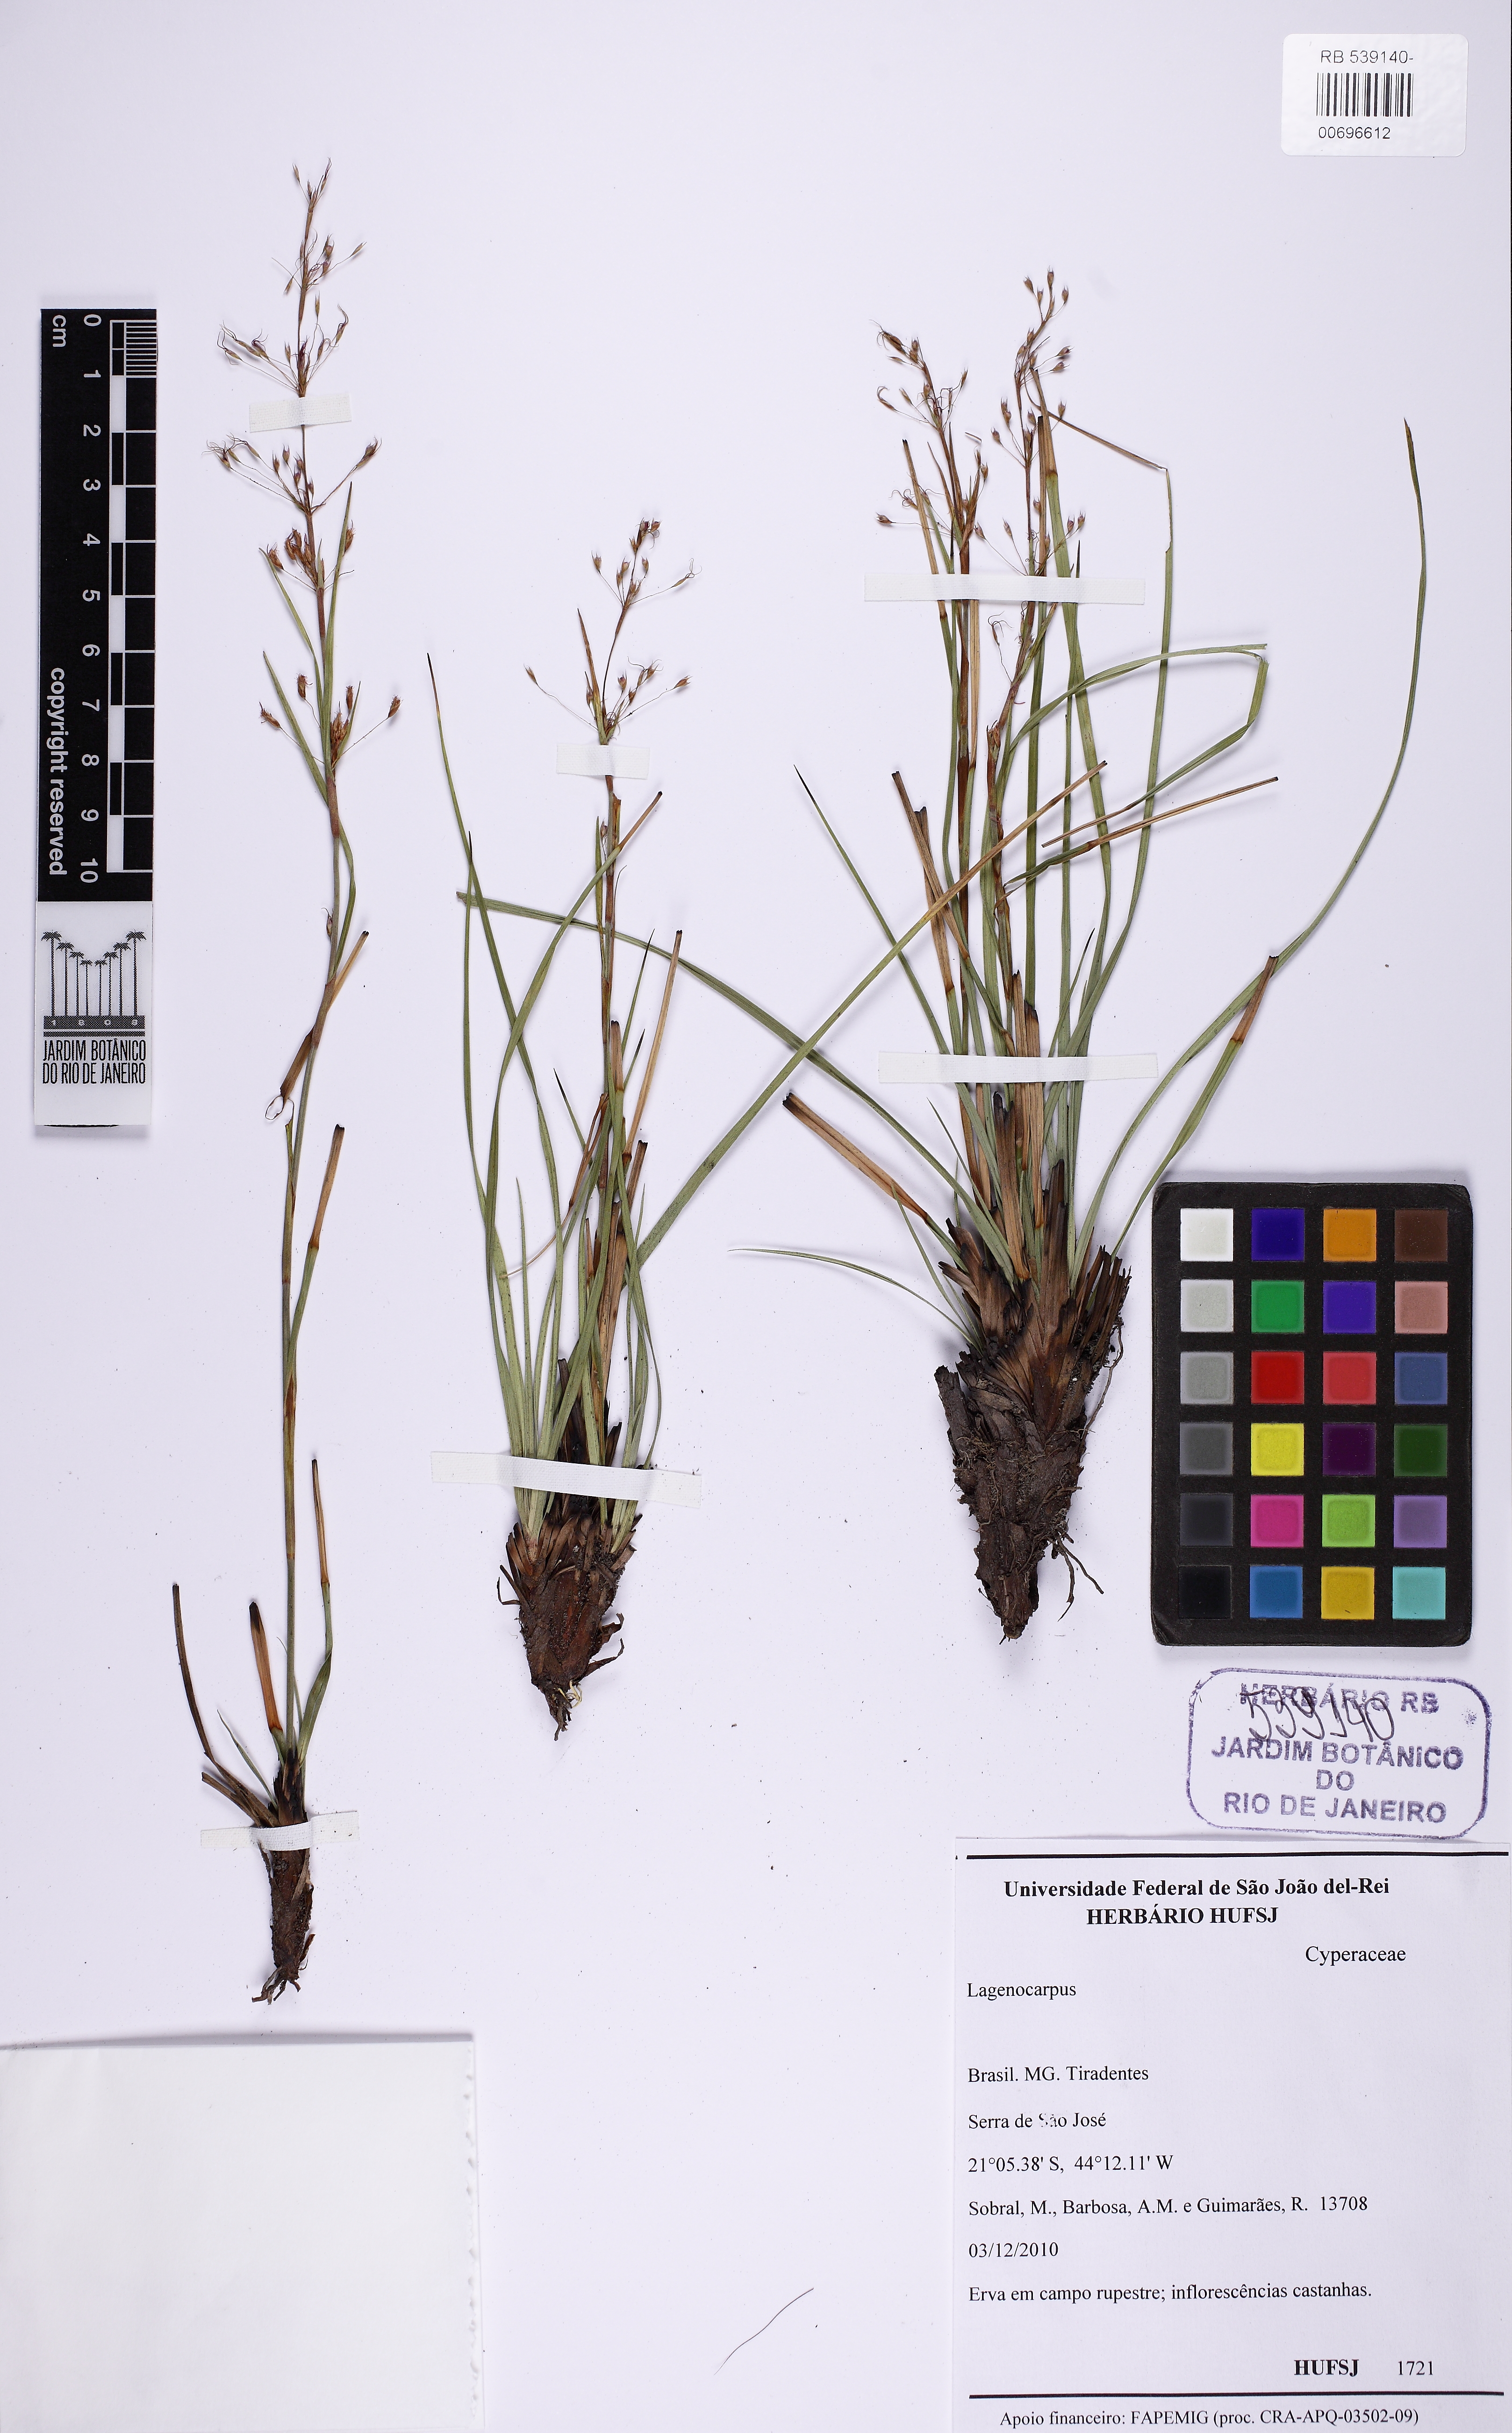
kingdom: Plantae
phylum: Tracheophyta
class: Liliopsida
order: Poales
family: Cyperaceae
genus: Cryptangium
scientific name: Cryptangium
